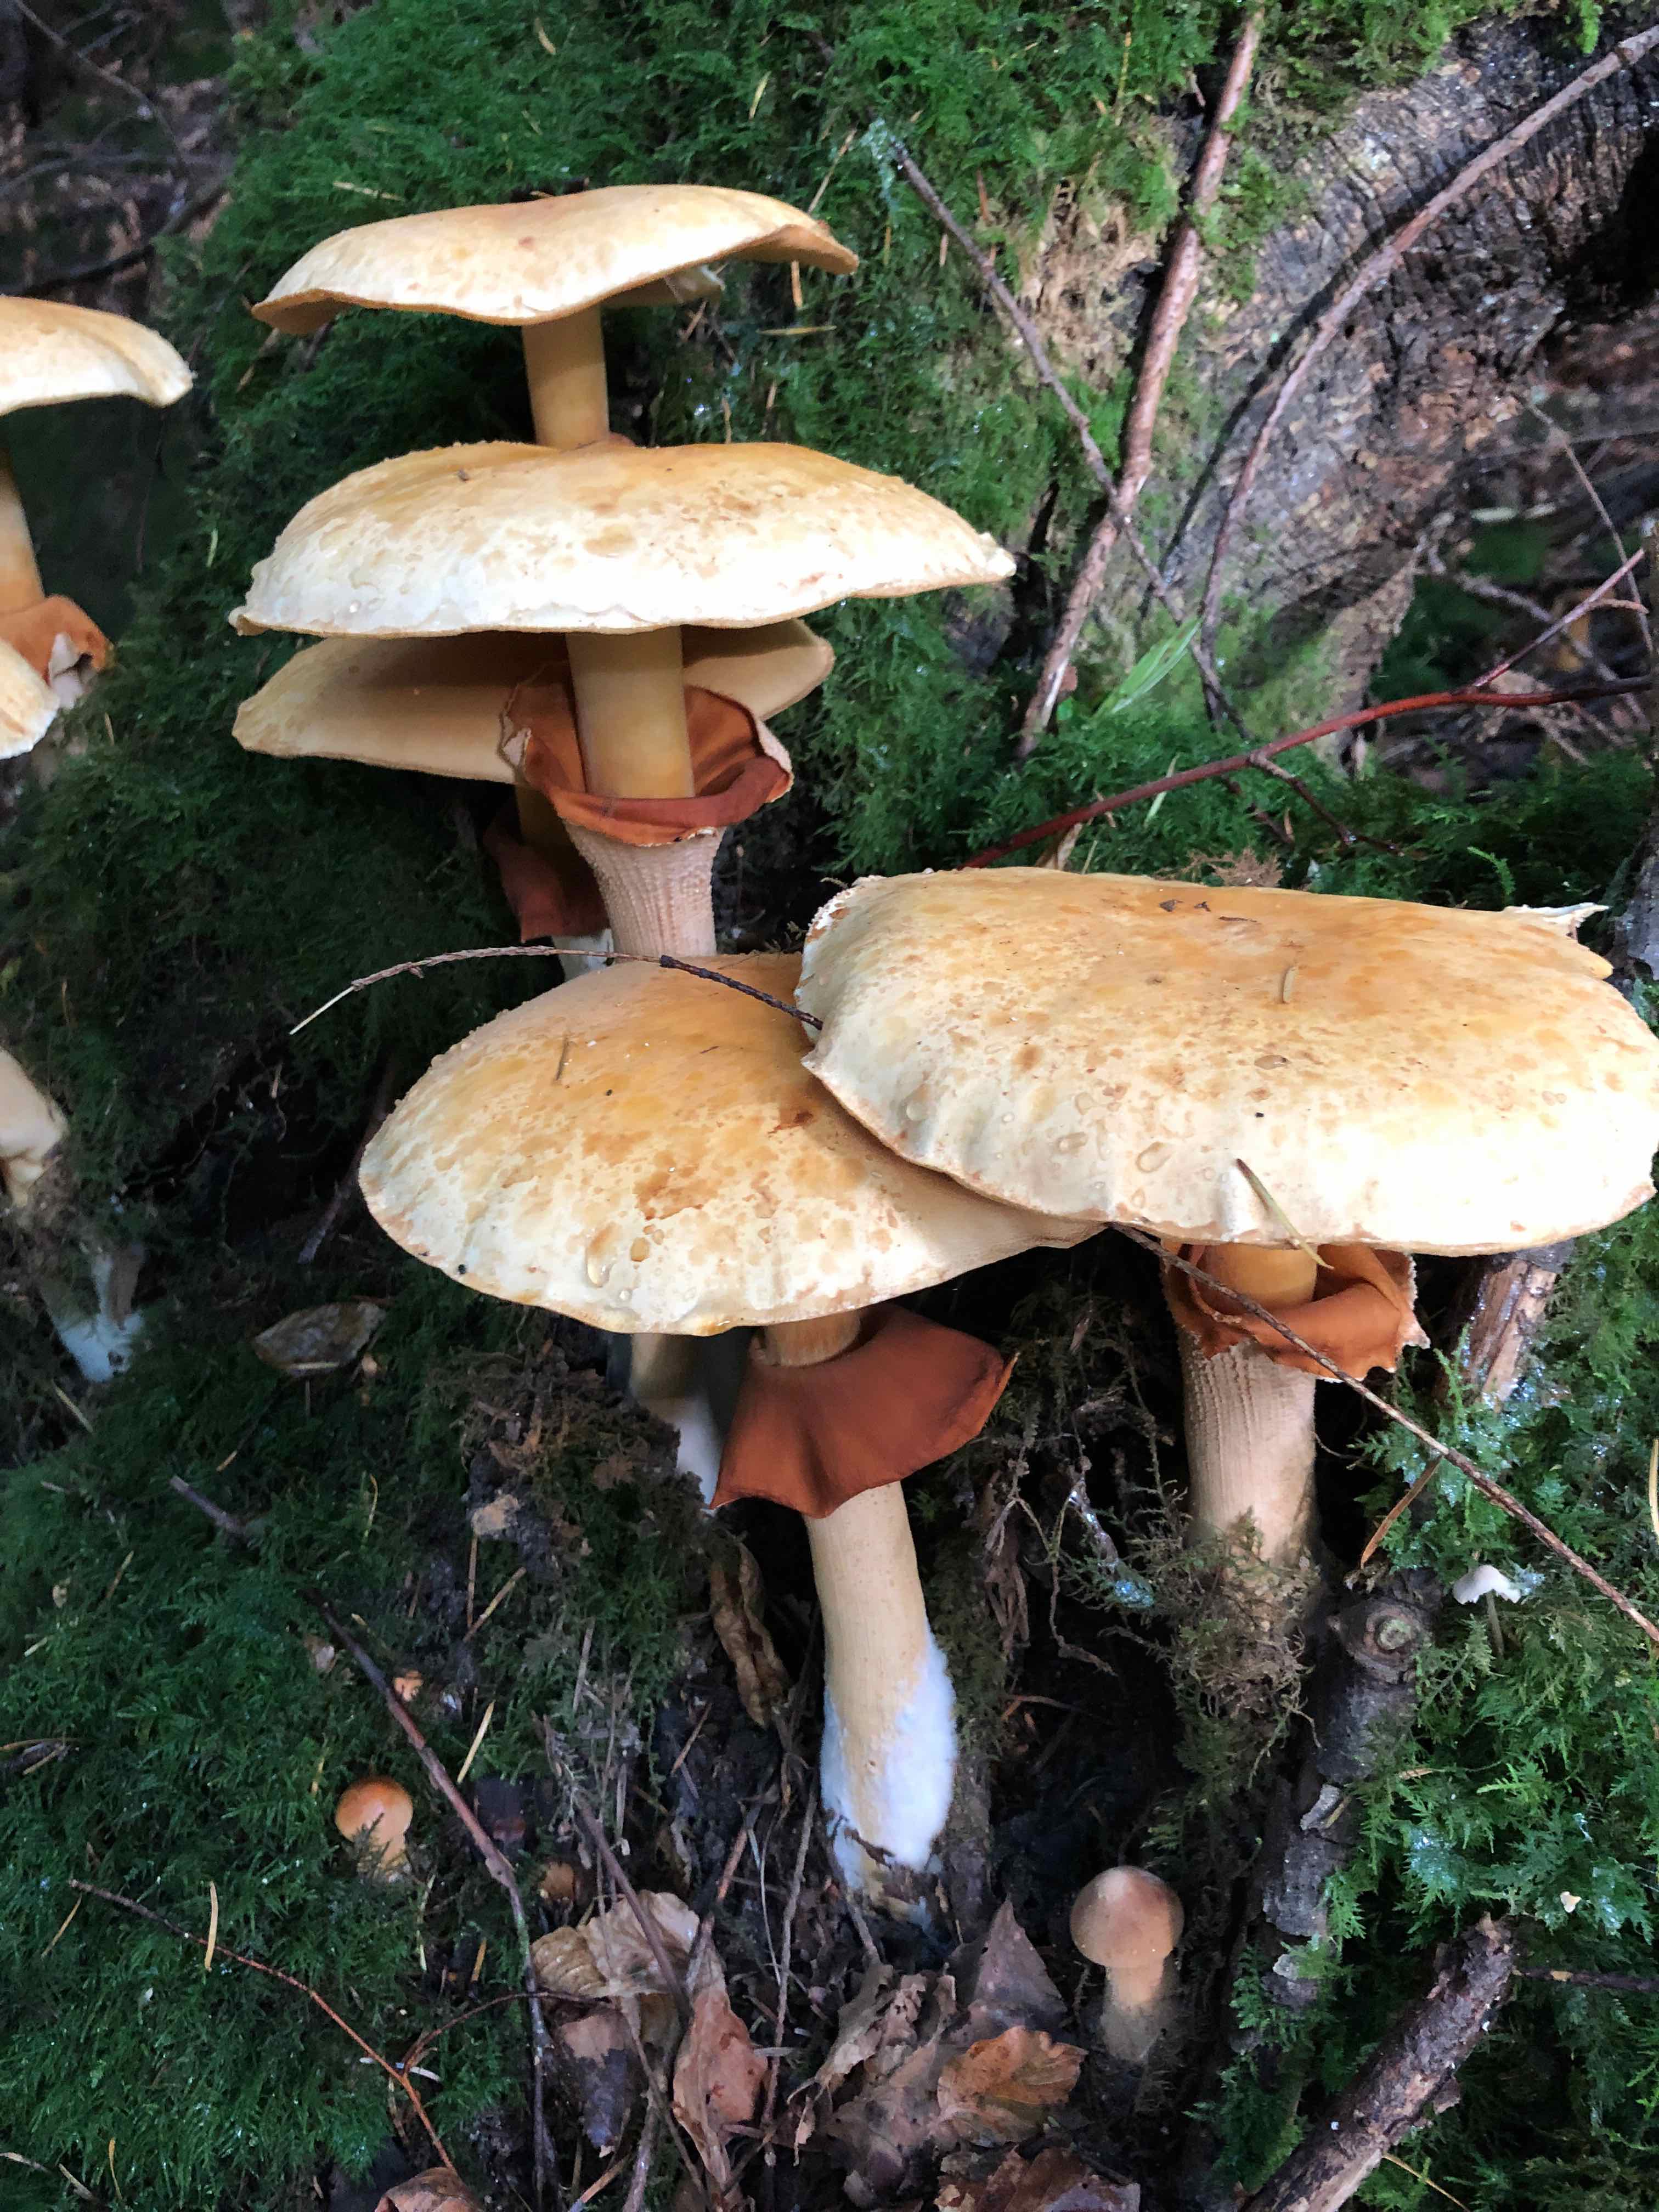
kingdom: Fungi
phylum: Basidiomycota
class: Agaricomycetes
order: Agaricales
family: Tricholomataceae
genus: Phaeolepiota
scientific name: Phaeolepiota aurea
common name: gyldenhat
